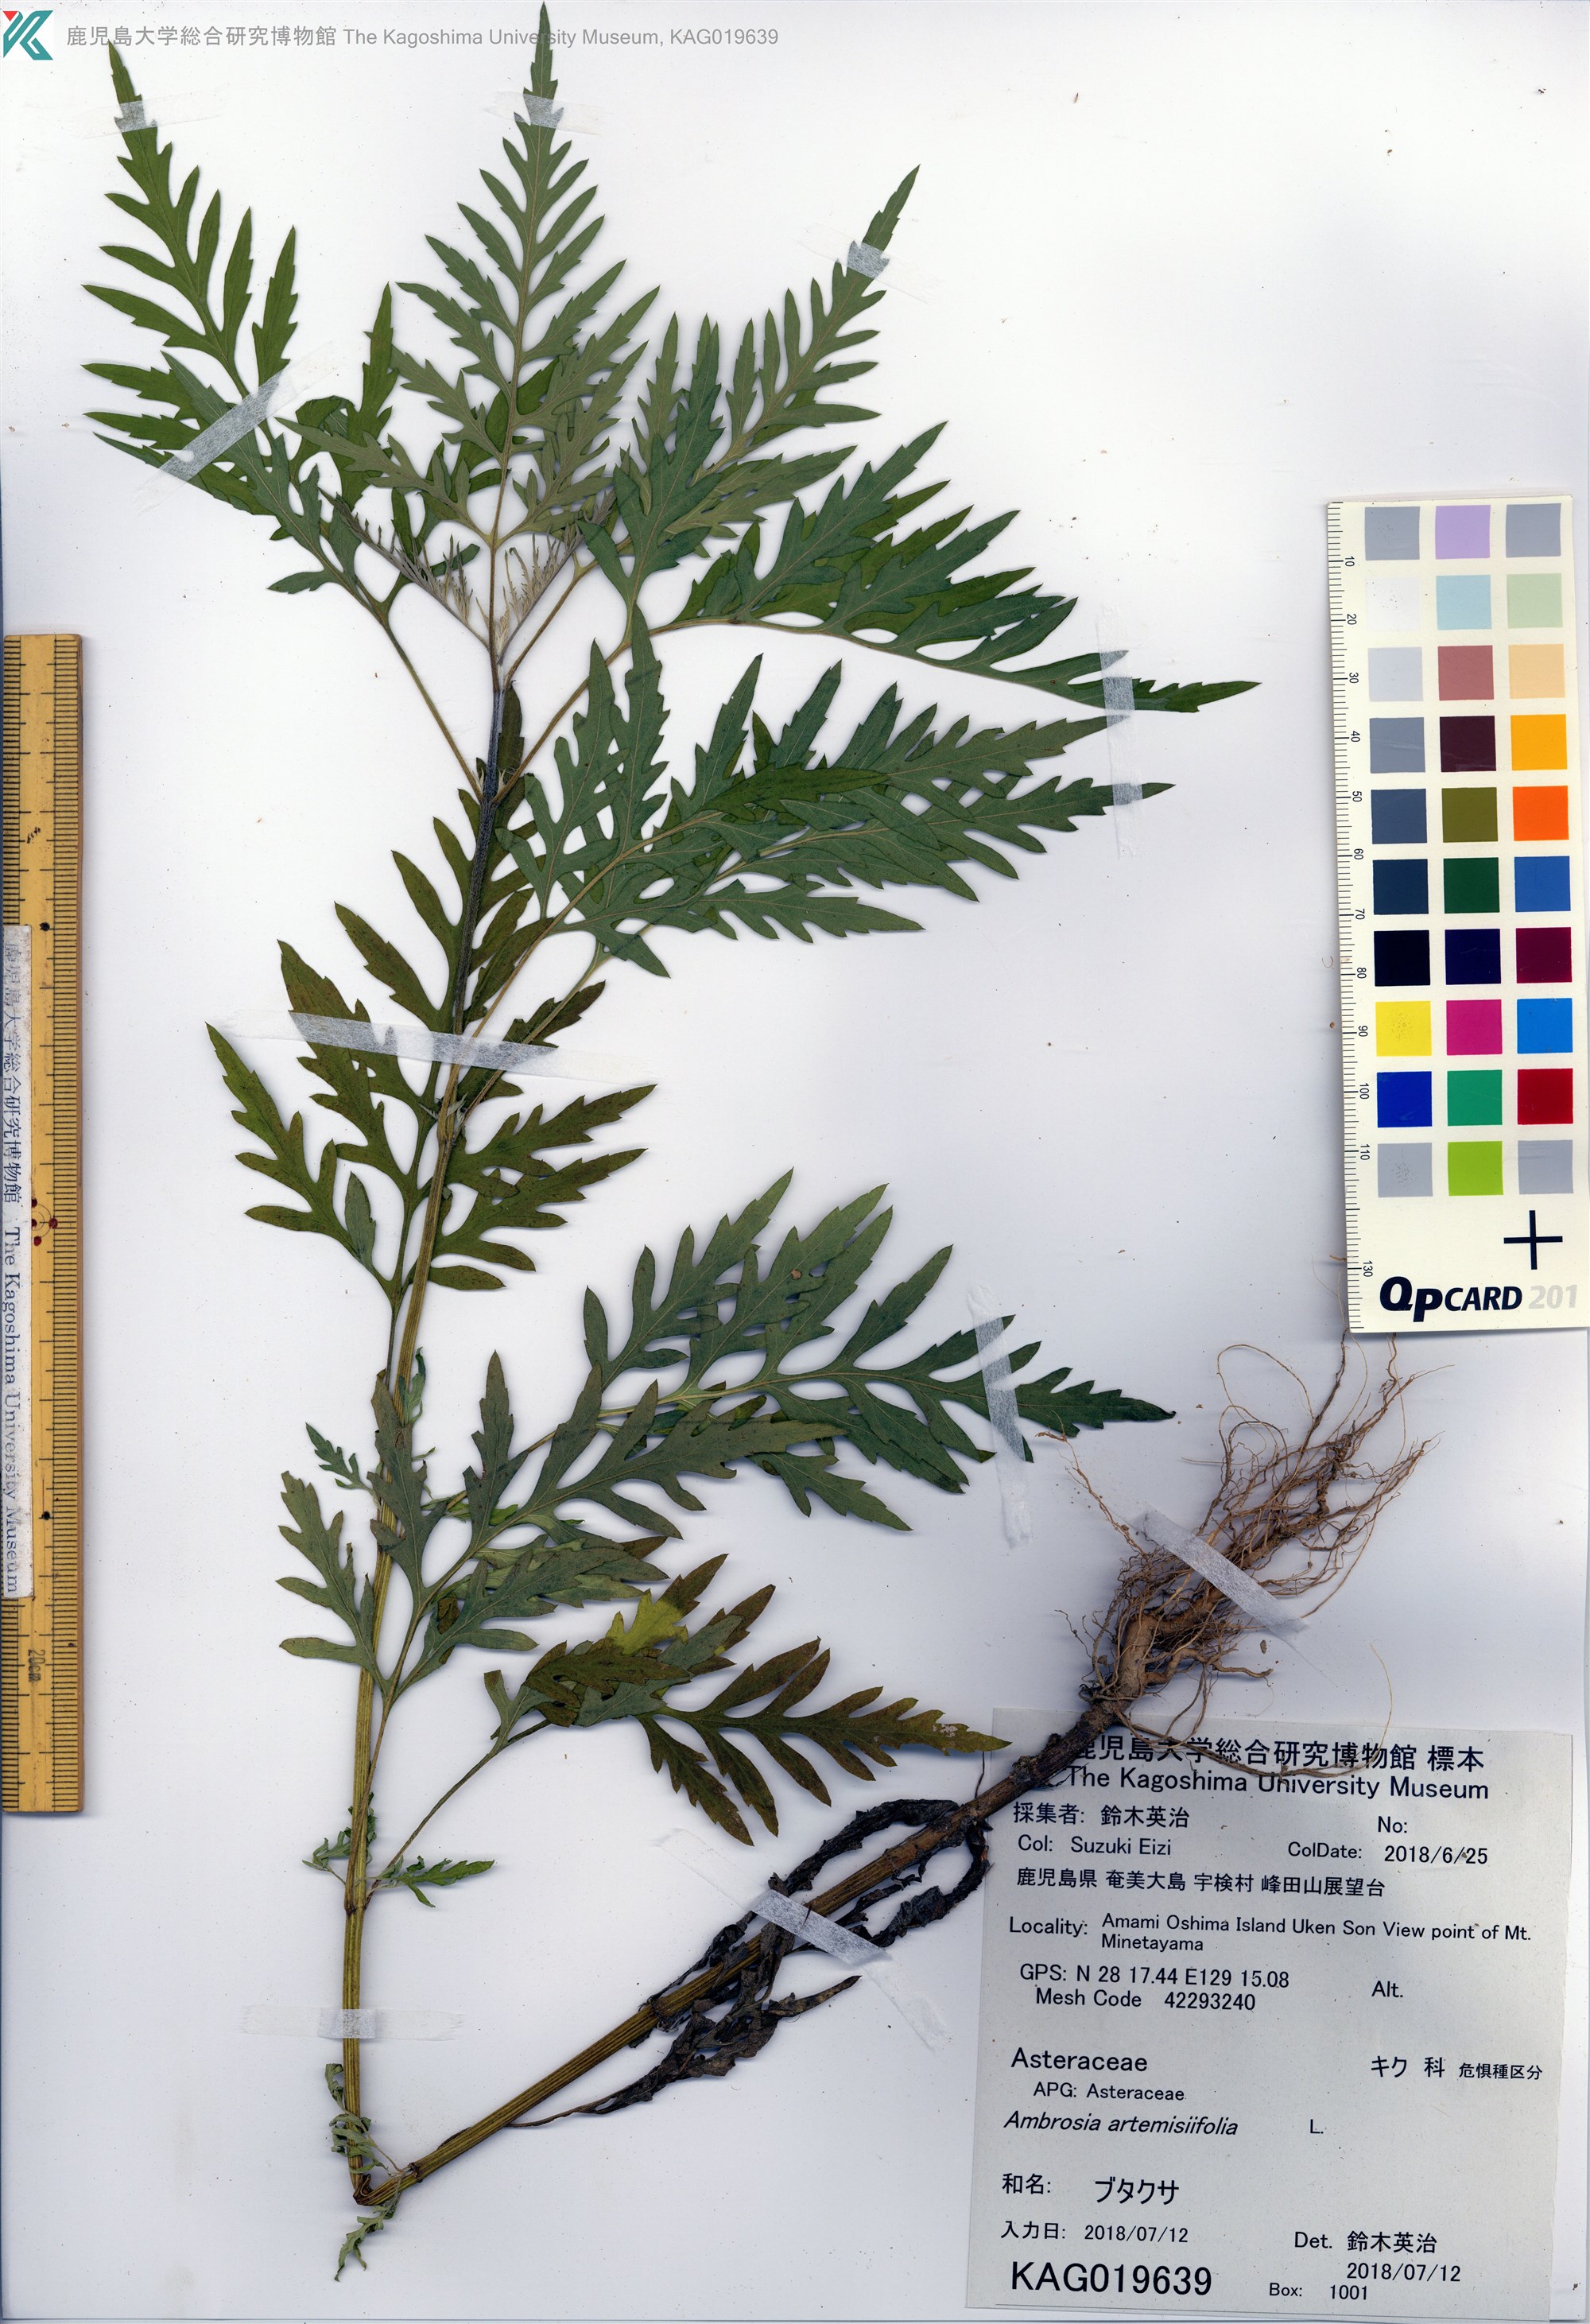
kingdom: Plantae
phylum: Tracheophyta
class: Magnoliopsida
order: Asterales
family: Asteraceae
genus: Ambrosia
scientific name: Ambrosia artemisiifolia
